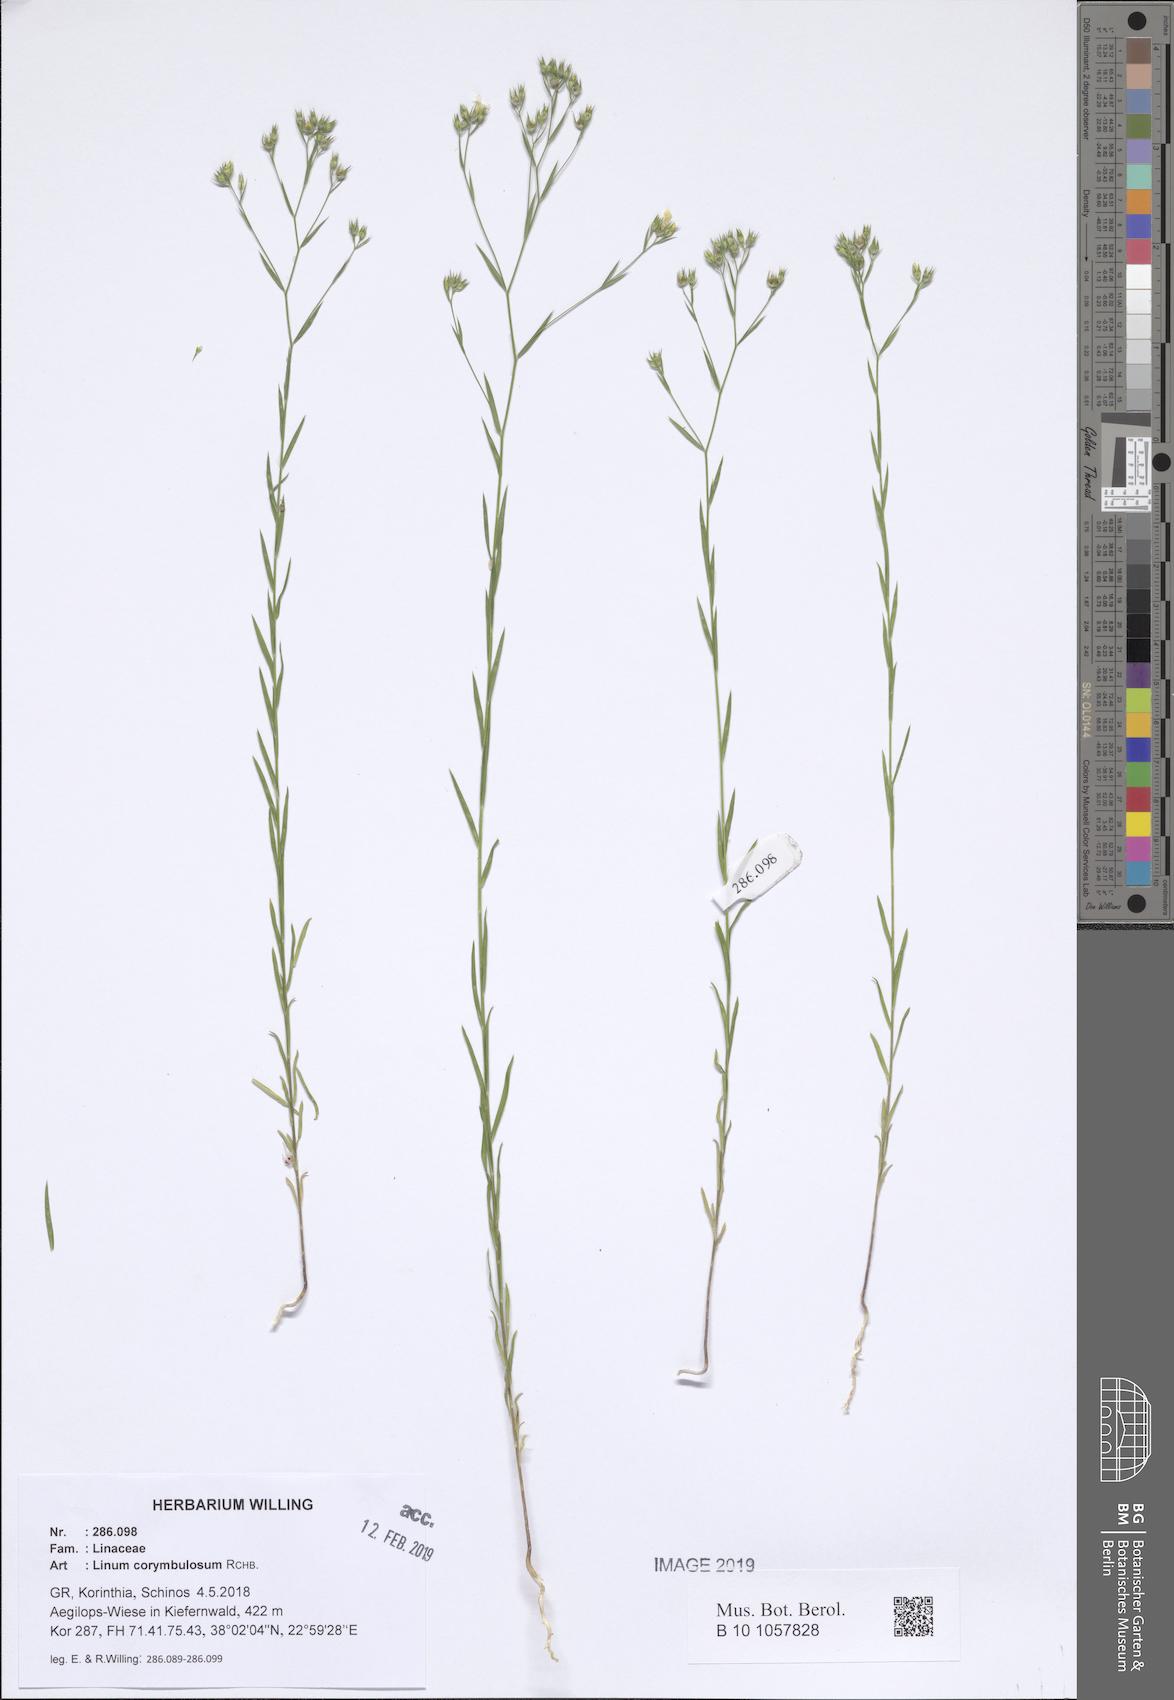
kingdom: Plantae
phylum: Tracheophyta
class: Magnoliopsida
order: Malpighiales
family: Linaceae
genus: Linum
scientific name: Linum corymbulosum
